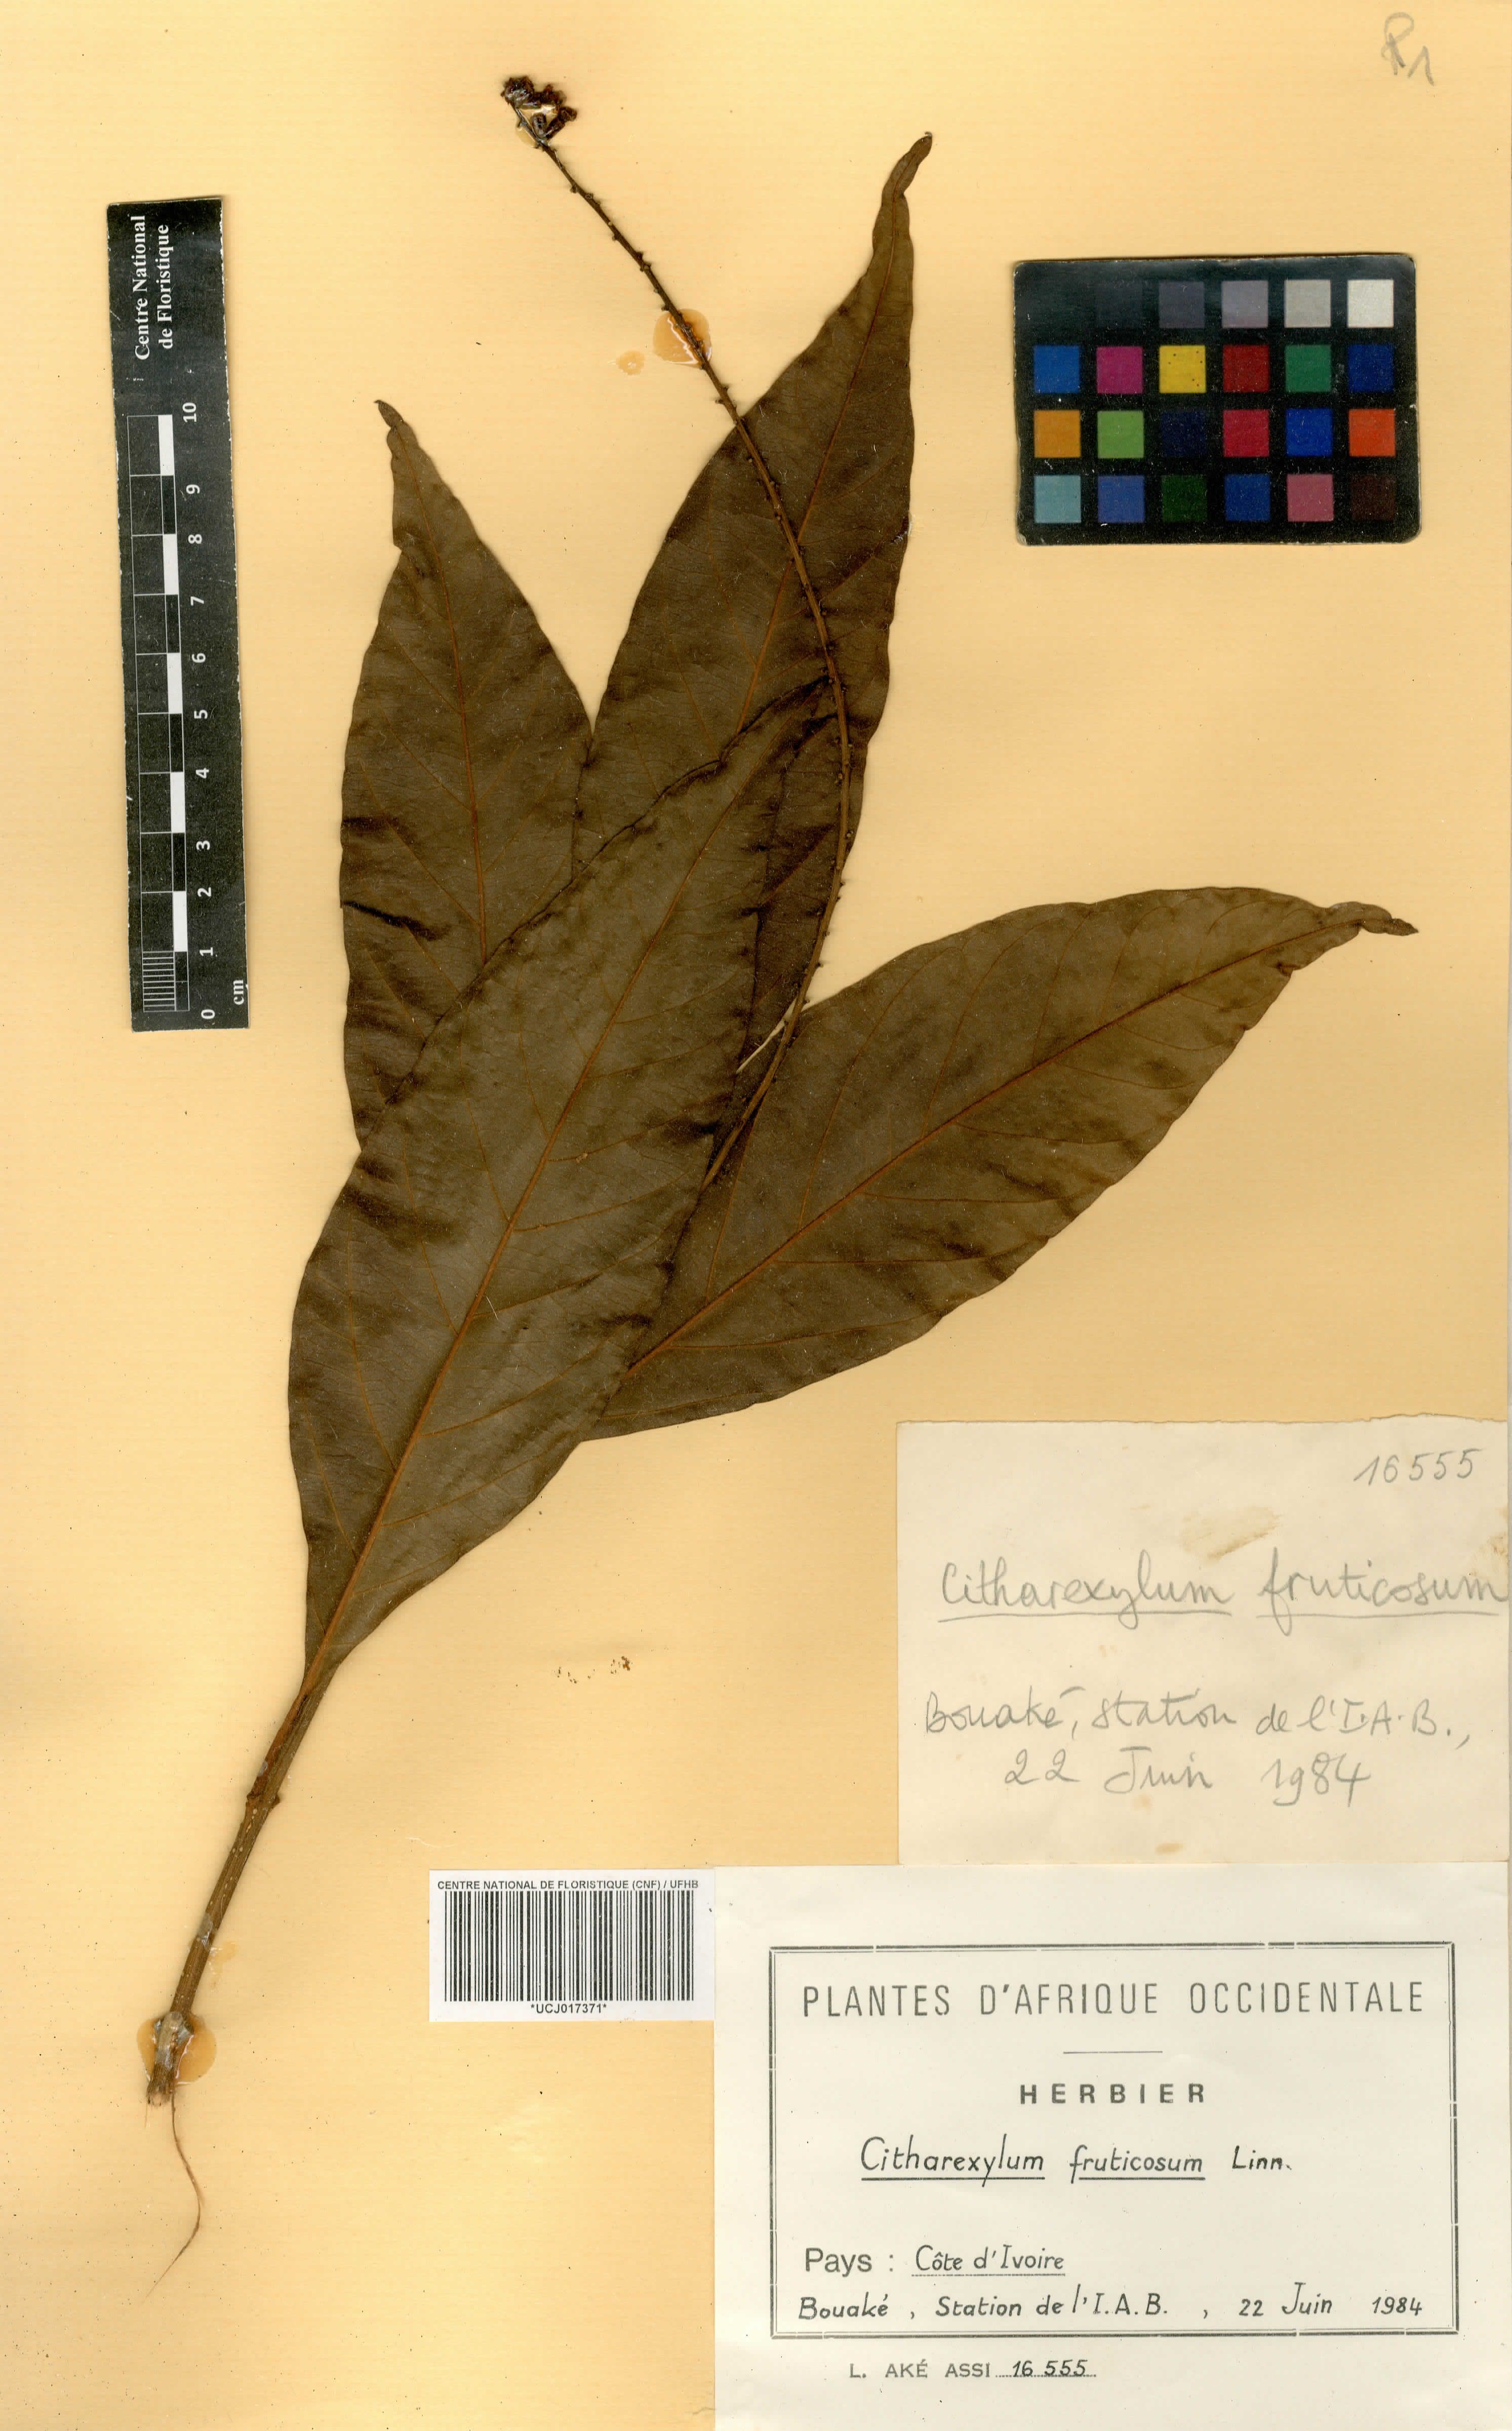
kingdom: Plantae
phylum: Tracheophyta
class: Magnoliopsida
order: Lamiales
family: Verbenaceae
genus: Citharexylum
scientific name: Citharexylum spinosum
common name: Fiddlewood
